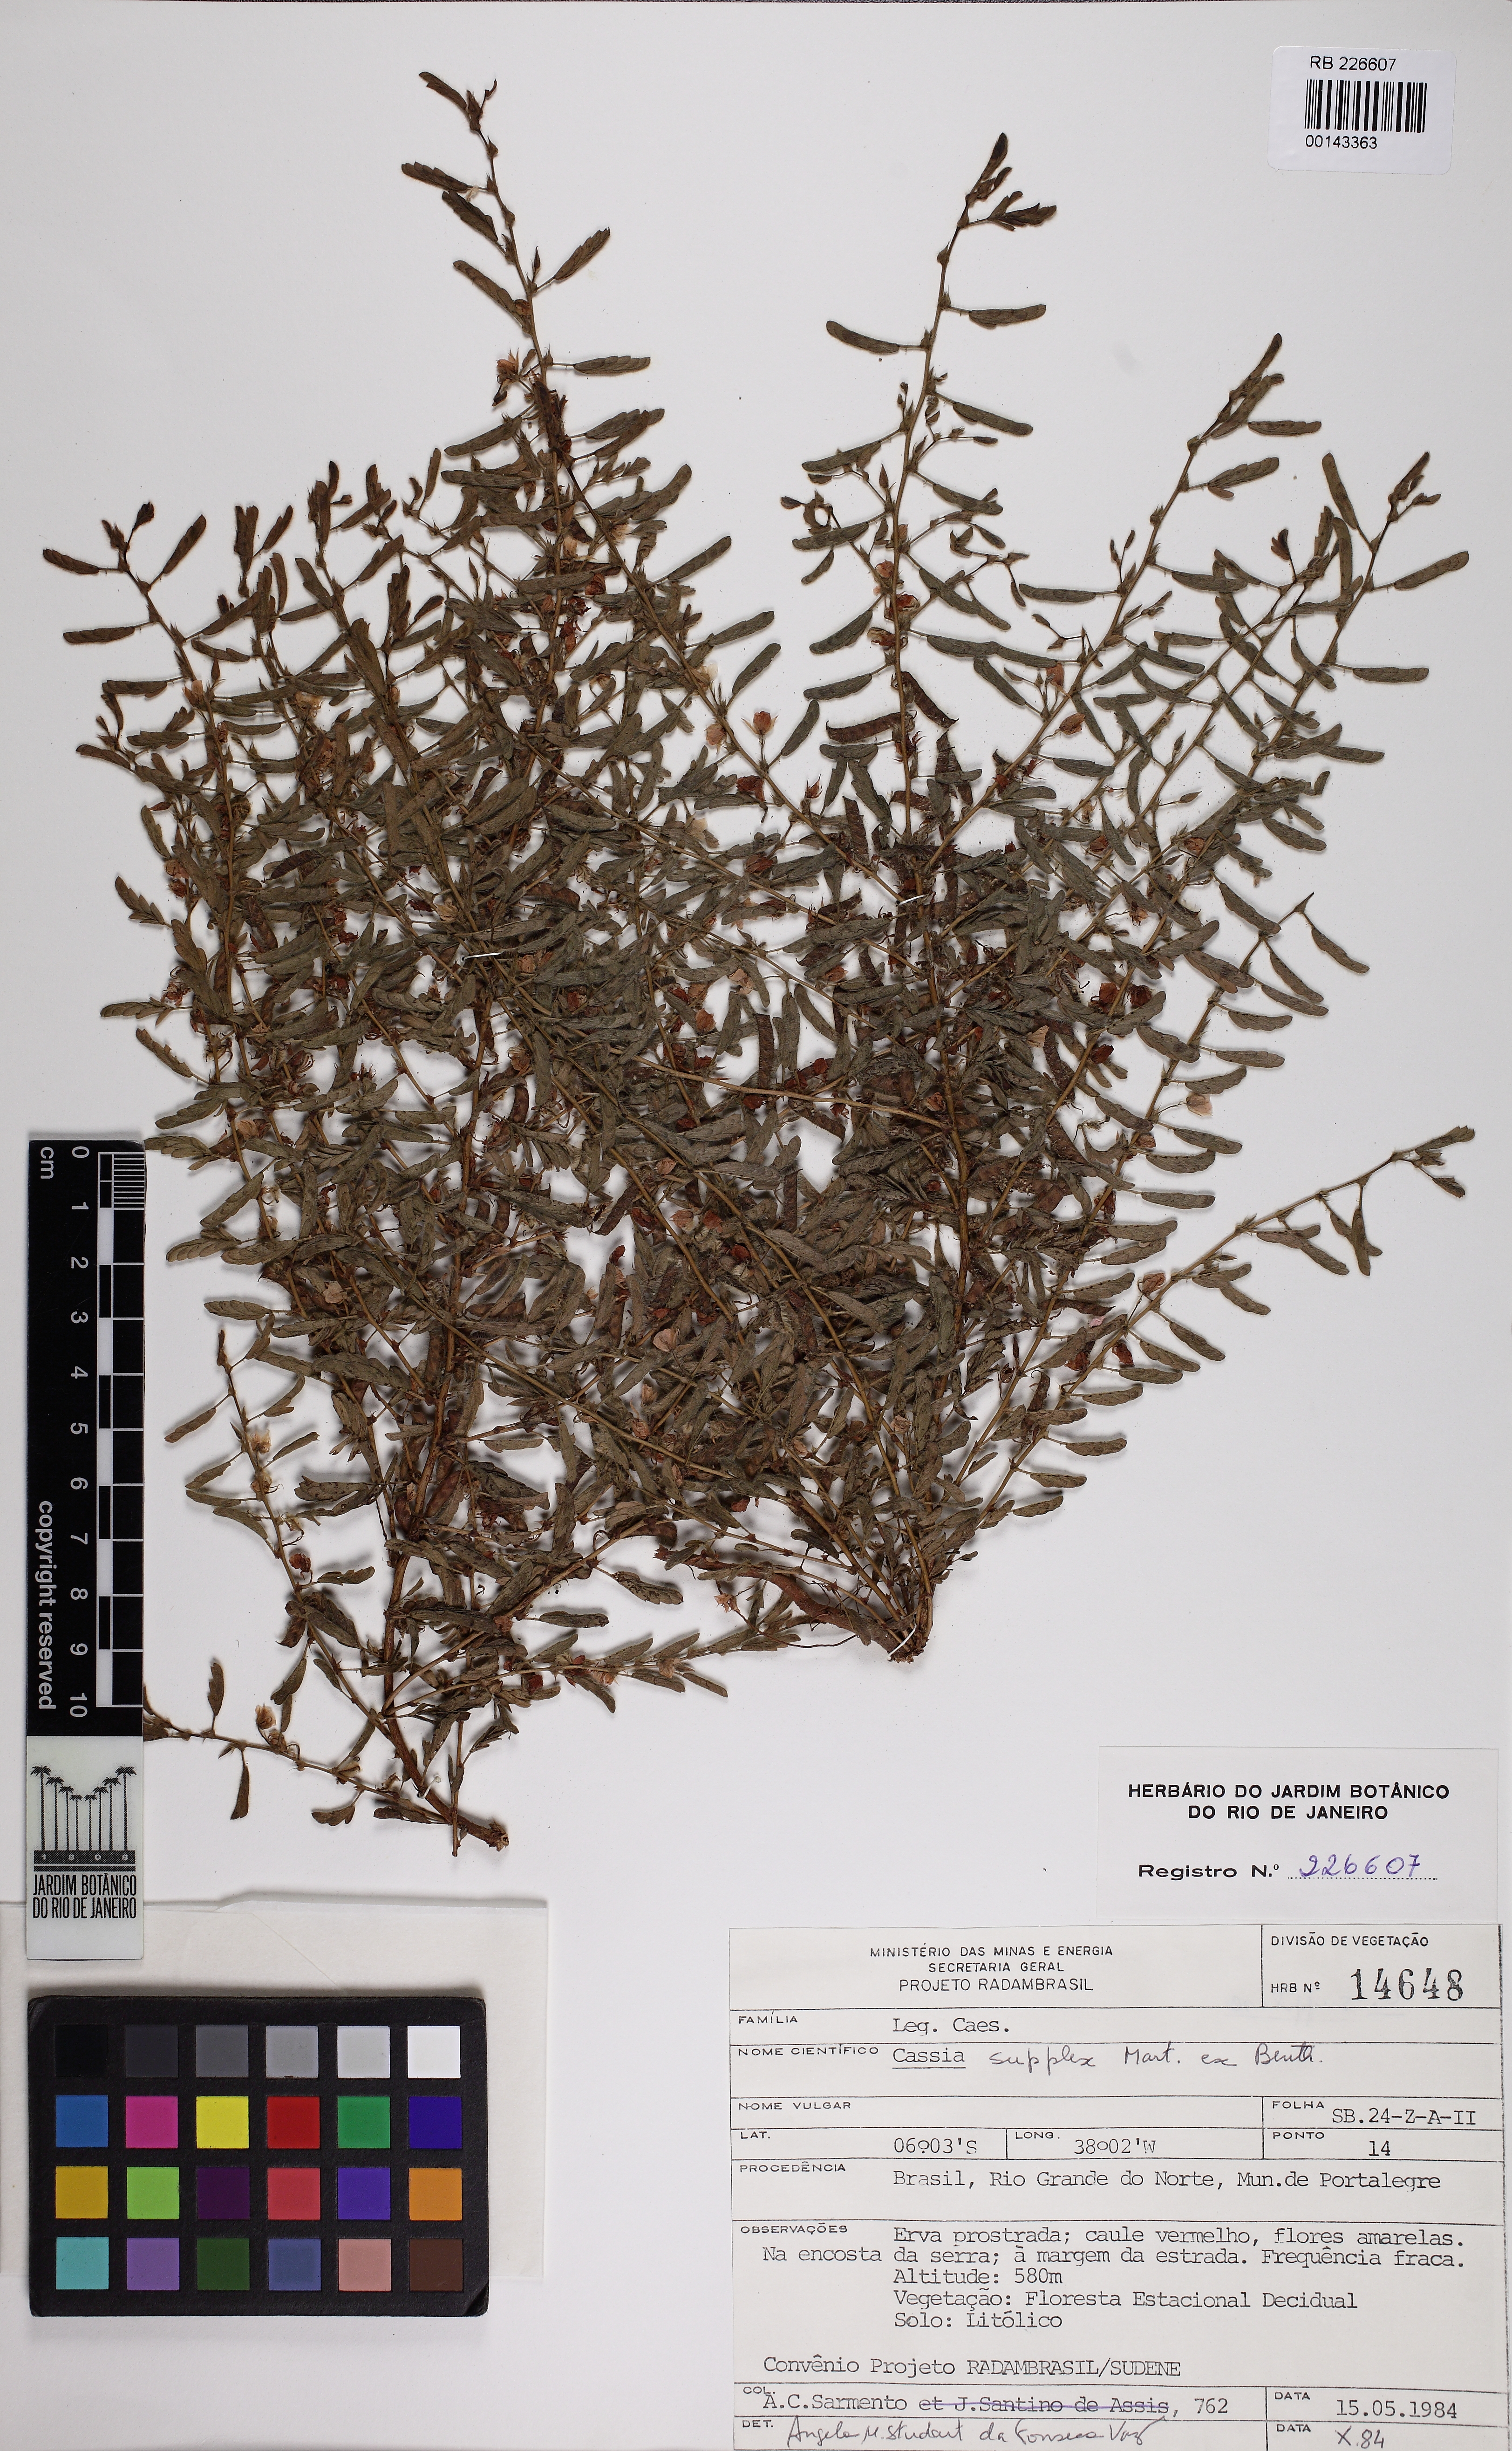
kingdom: Plantae
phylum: Tracheophyta
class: Magnoliopsida
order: Fabales
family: Fabaceae
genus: Chamaecrista
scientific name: Chamaecrista supplex
